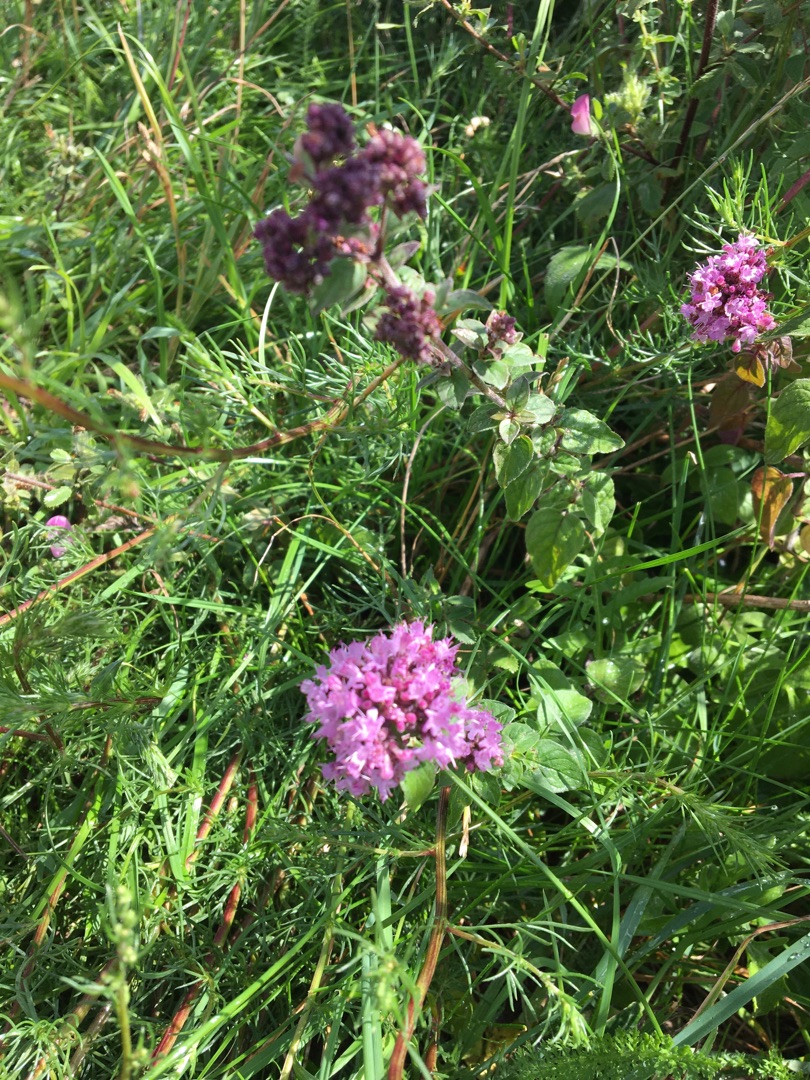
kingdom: Plantae
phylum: Tracheophyta
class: Magnoliopsida
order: Lamiales
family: Lamiaceae
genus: Origanum
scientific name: Origanum vulgare
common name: Merian
